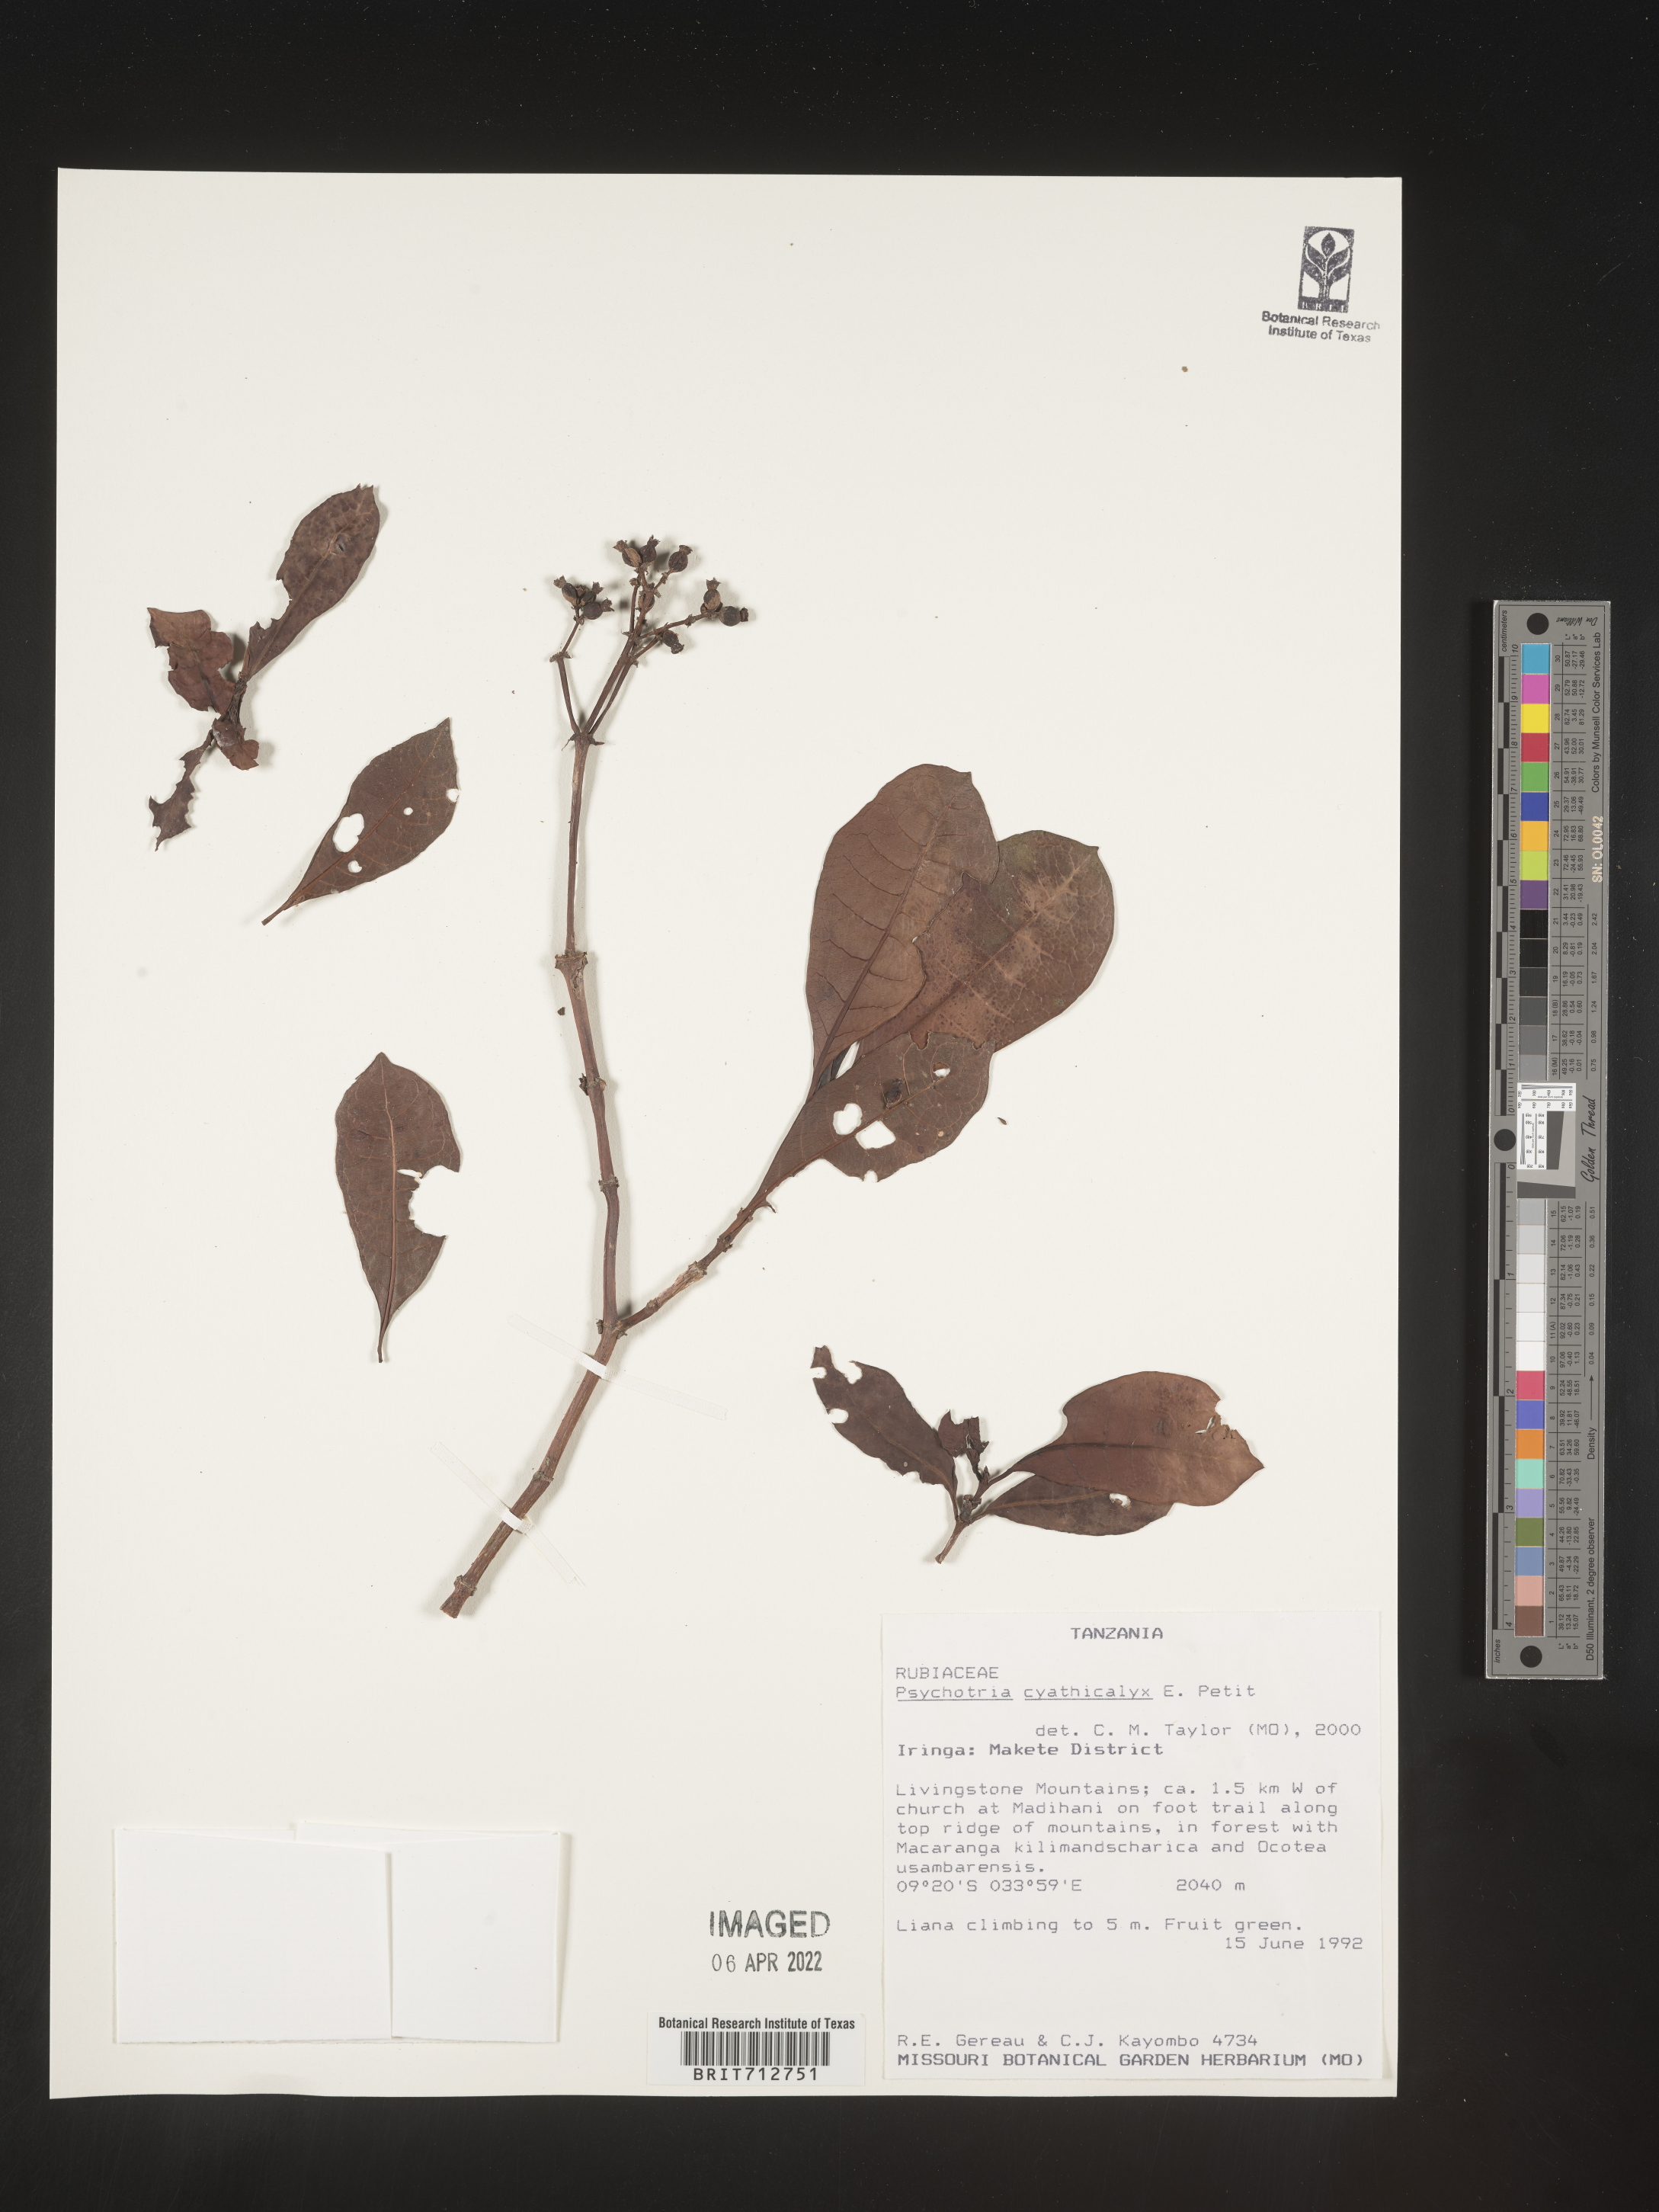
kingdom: Plantae
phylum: Tracheophyta
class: Magnoliopsida
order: Gentianales
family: Rubiaceae
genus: Psychotria
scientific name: Psychotria
